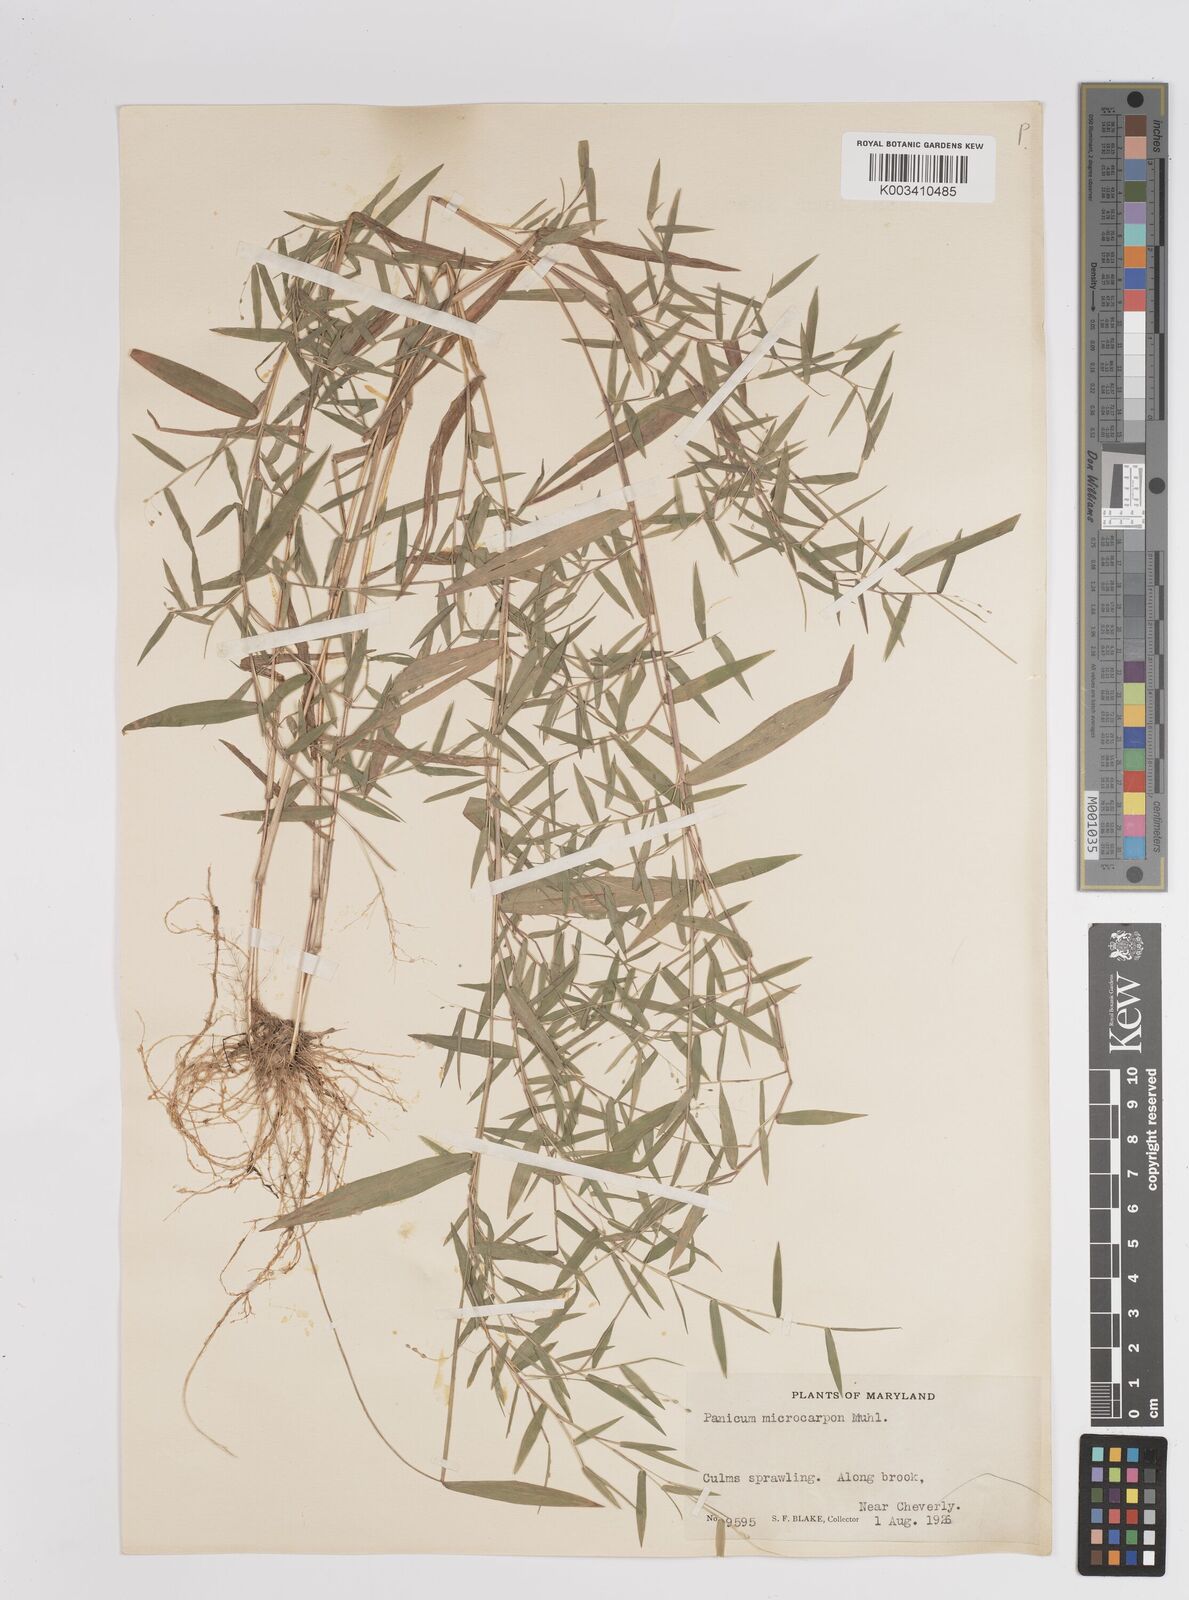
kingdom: Plantae
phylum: Tracheophyta
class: Liliopsida
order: Poales
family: Poaceae
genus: Dichanthelium
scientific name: Dichanthelium polyanthes
